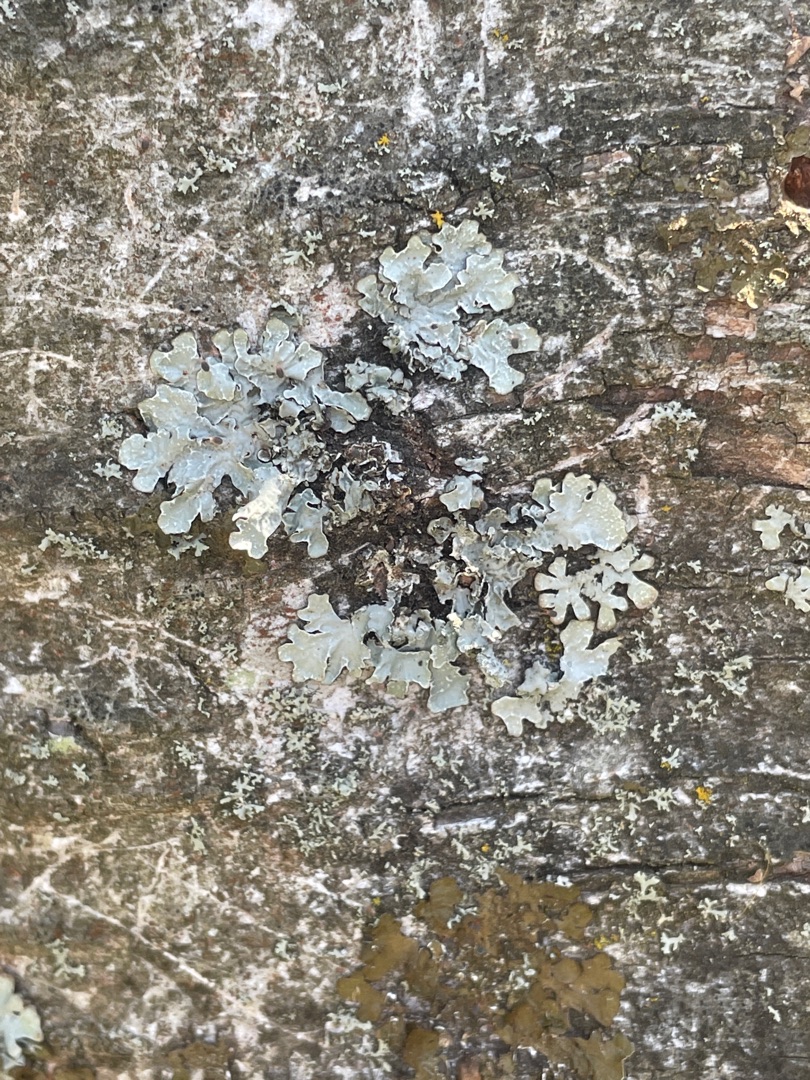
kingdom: Fungi
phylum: Ascomycota
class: Lecanoromycetes
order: Lecanorales
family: Parmeliaceae
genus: Parmelia
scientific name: Parmelia sulcata
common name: Rynket skållav
